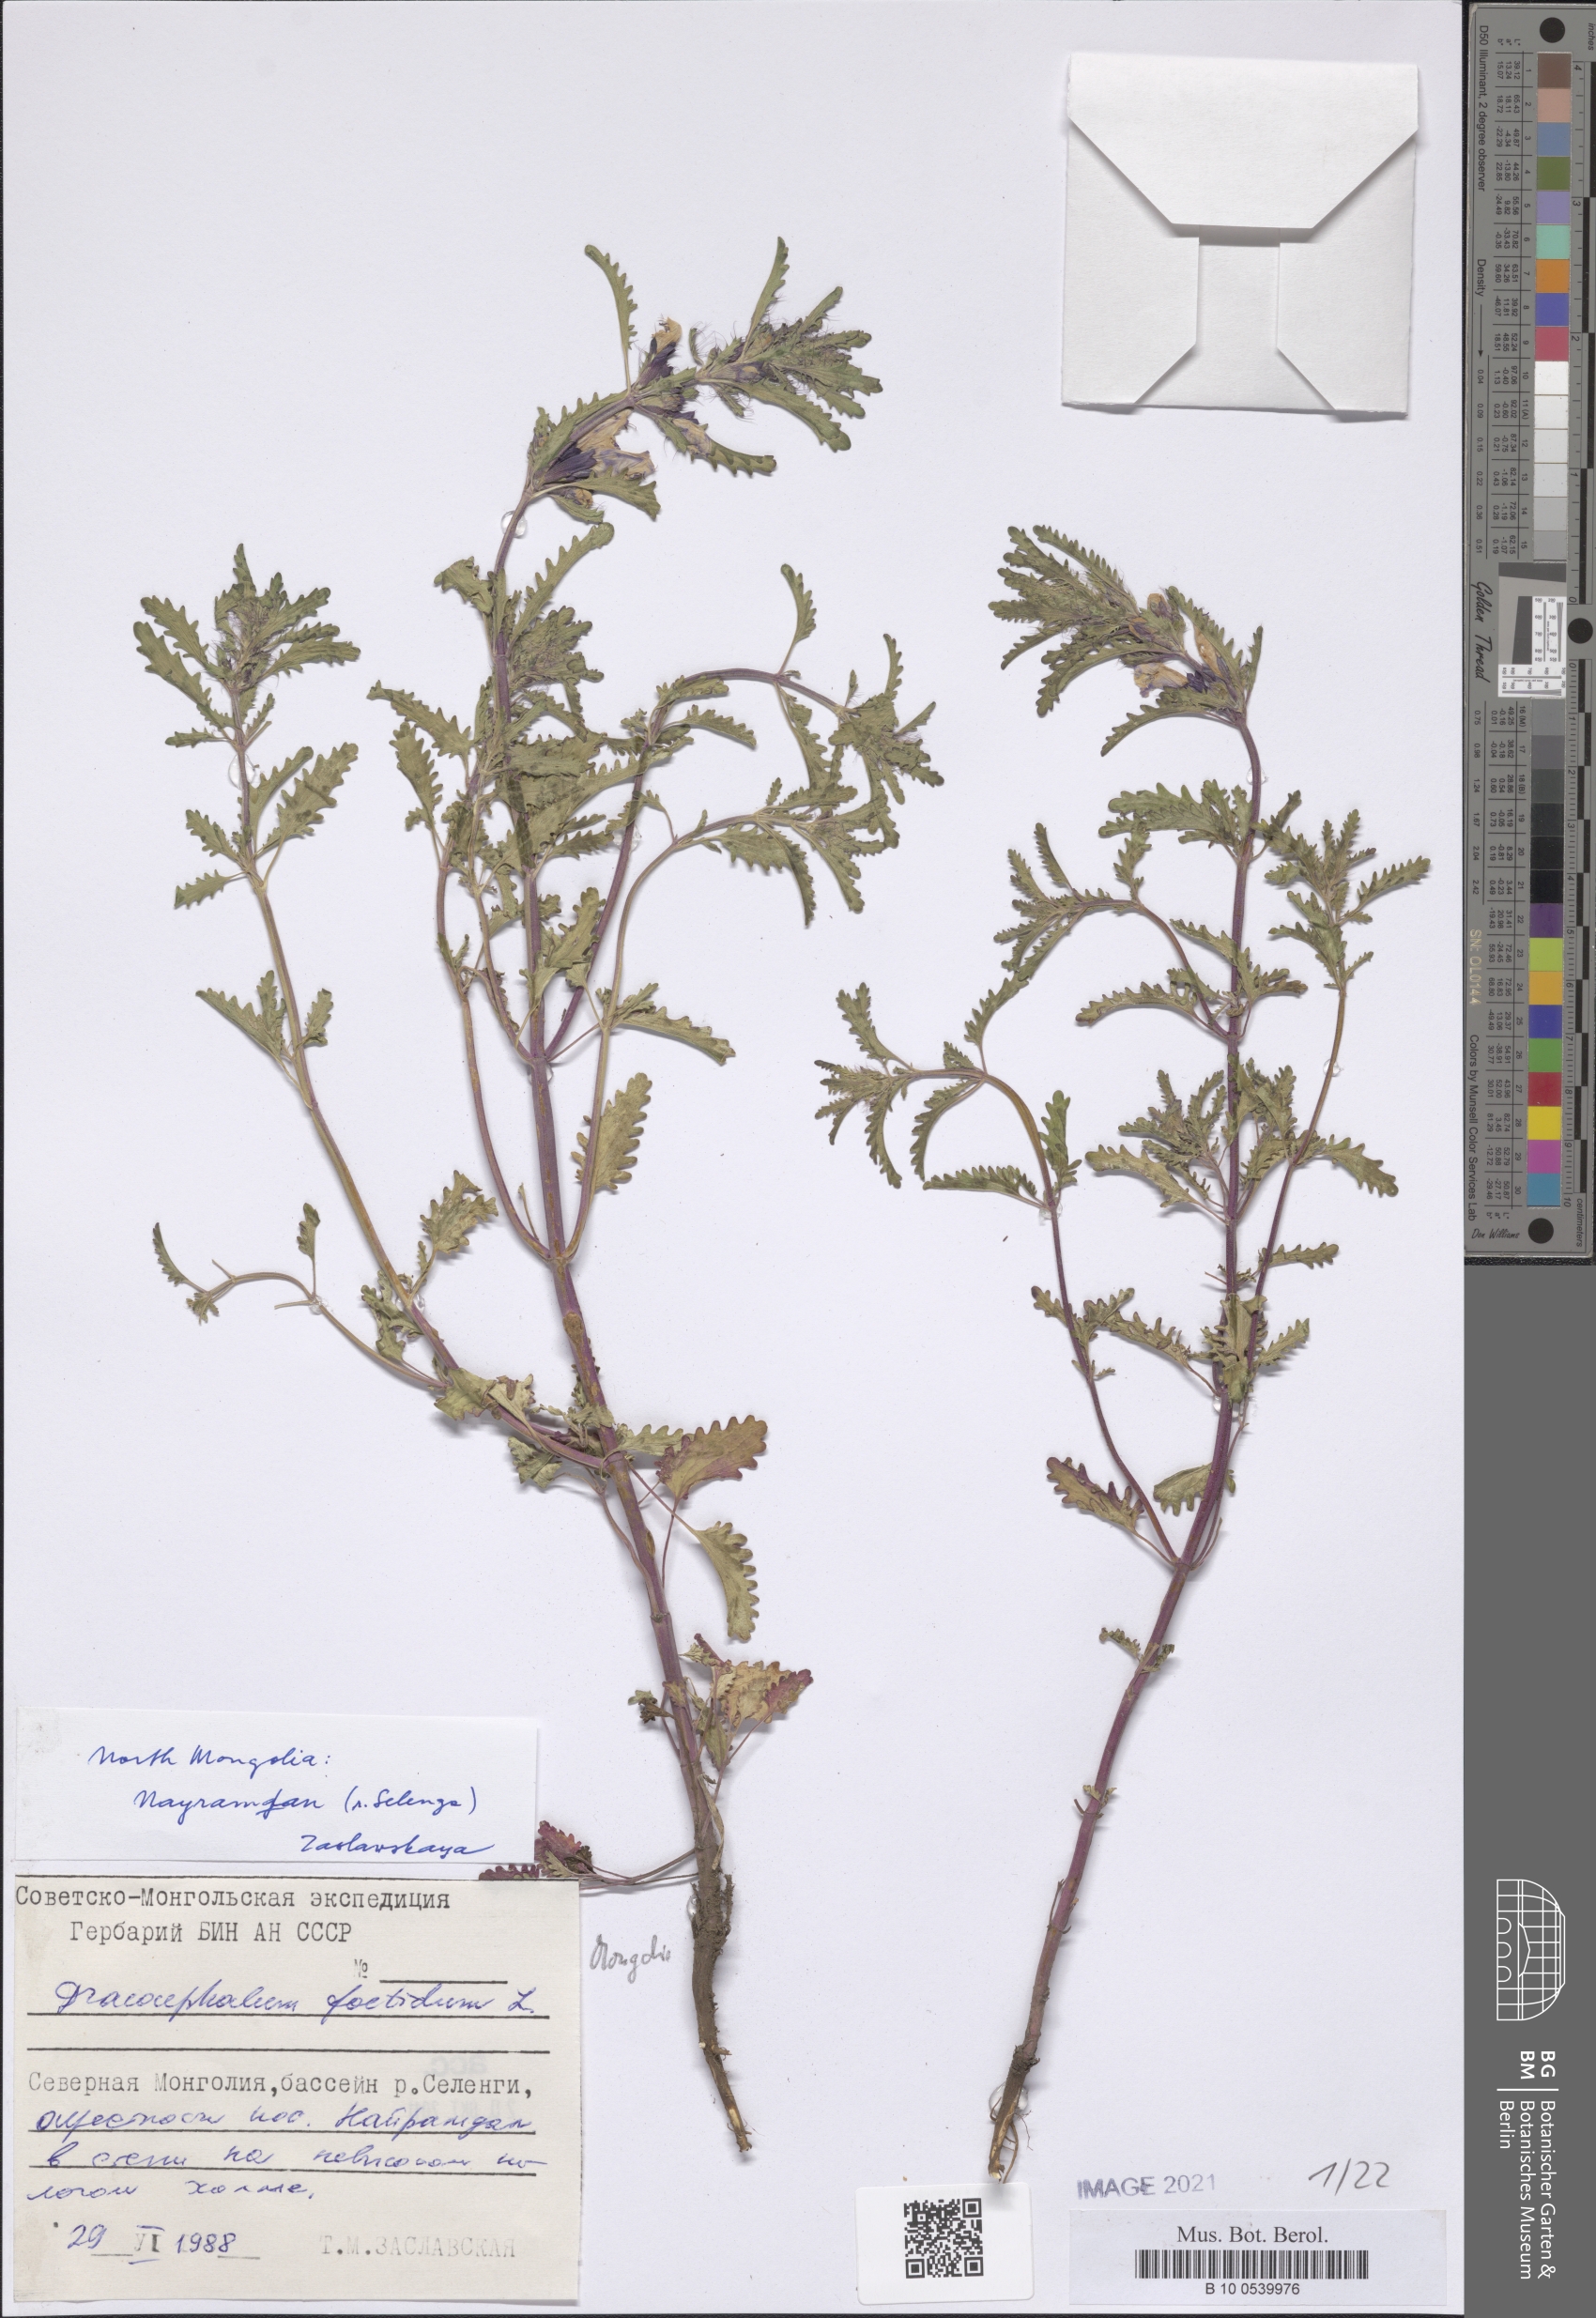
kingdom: Plantae
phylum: Tracheophyta
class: Magnoliopsida
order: Lamiales
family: Lamiaceae
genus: Dracocephalum
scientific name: Dracocephalum foetidum
